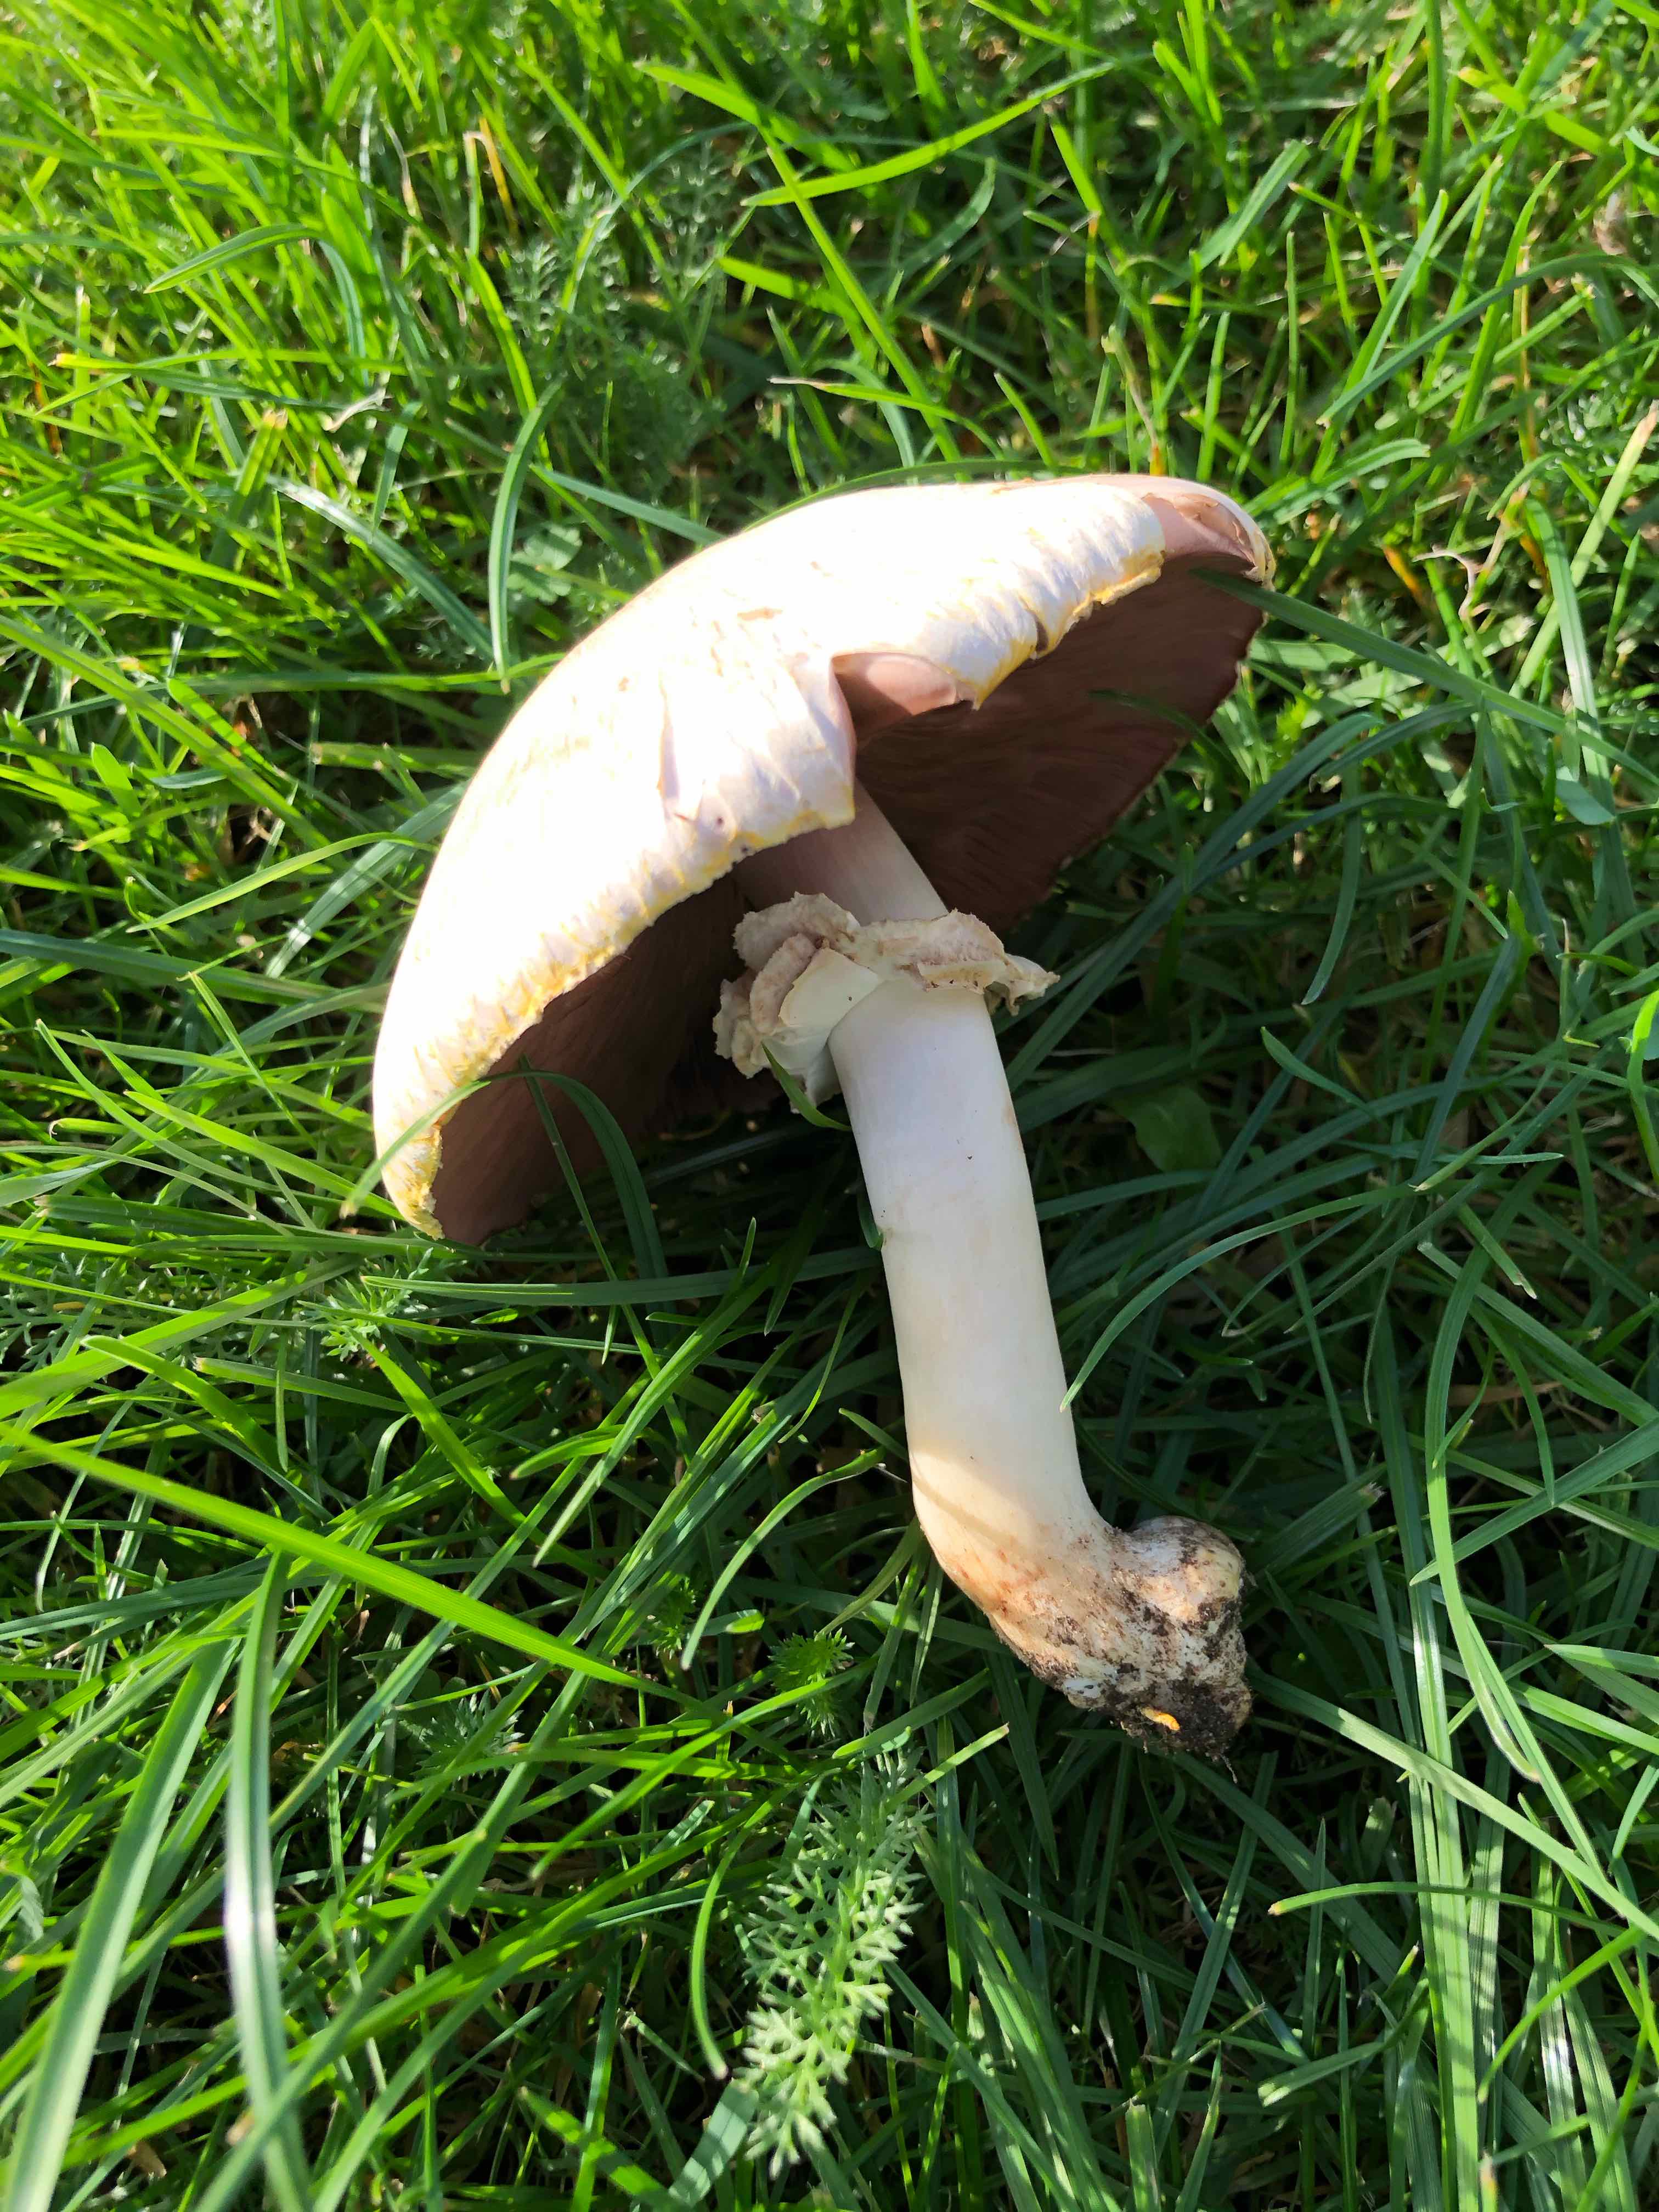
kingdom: Fungi
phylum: Basidiomycota
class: Agaricomycetes
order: Agaricales
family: Agaricaceae
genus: Agaricus
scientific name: Agaricus
